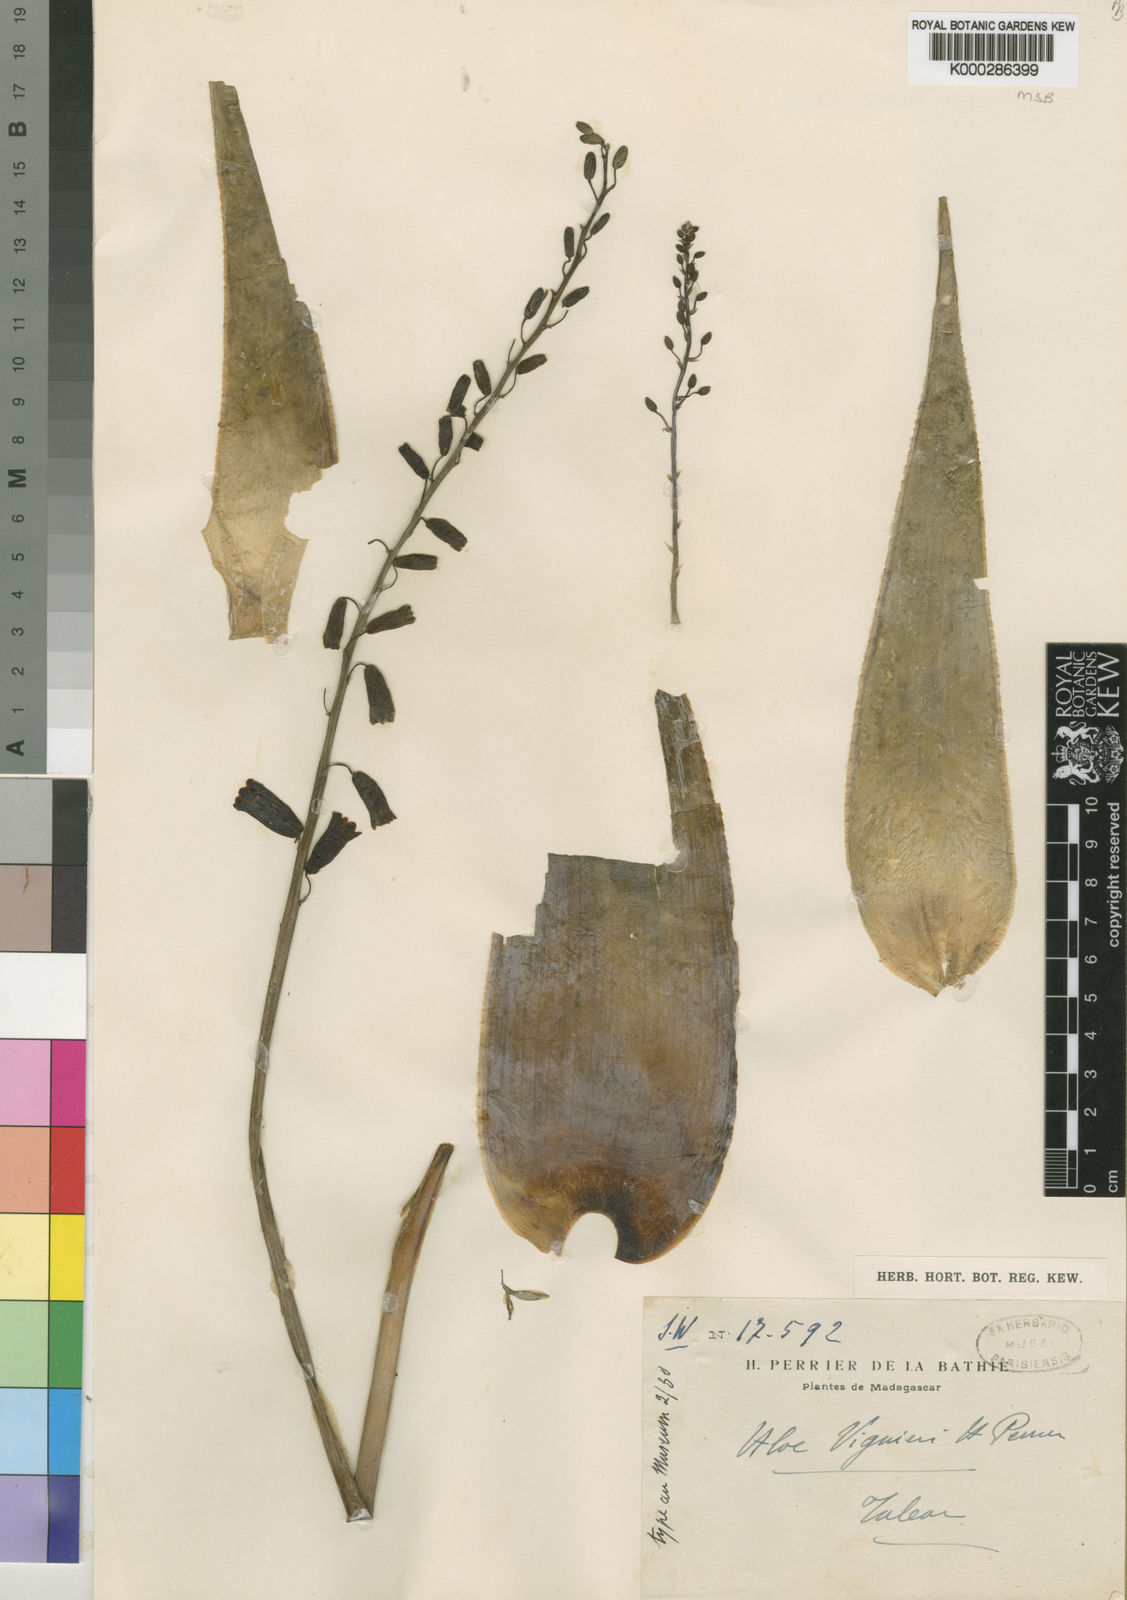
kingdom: Plantae
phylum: Tracheophyta
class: Liliopsida
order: Asparagales
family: Asphodelaceae
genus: Aloe
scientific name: Aloe viguieri
